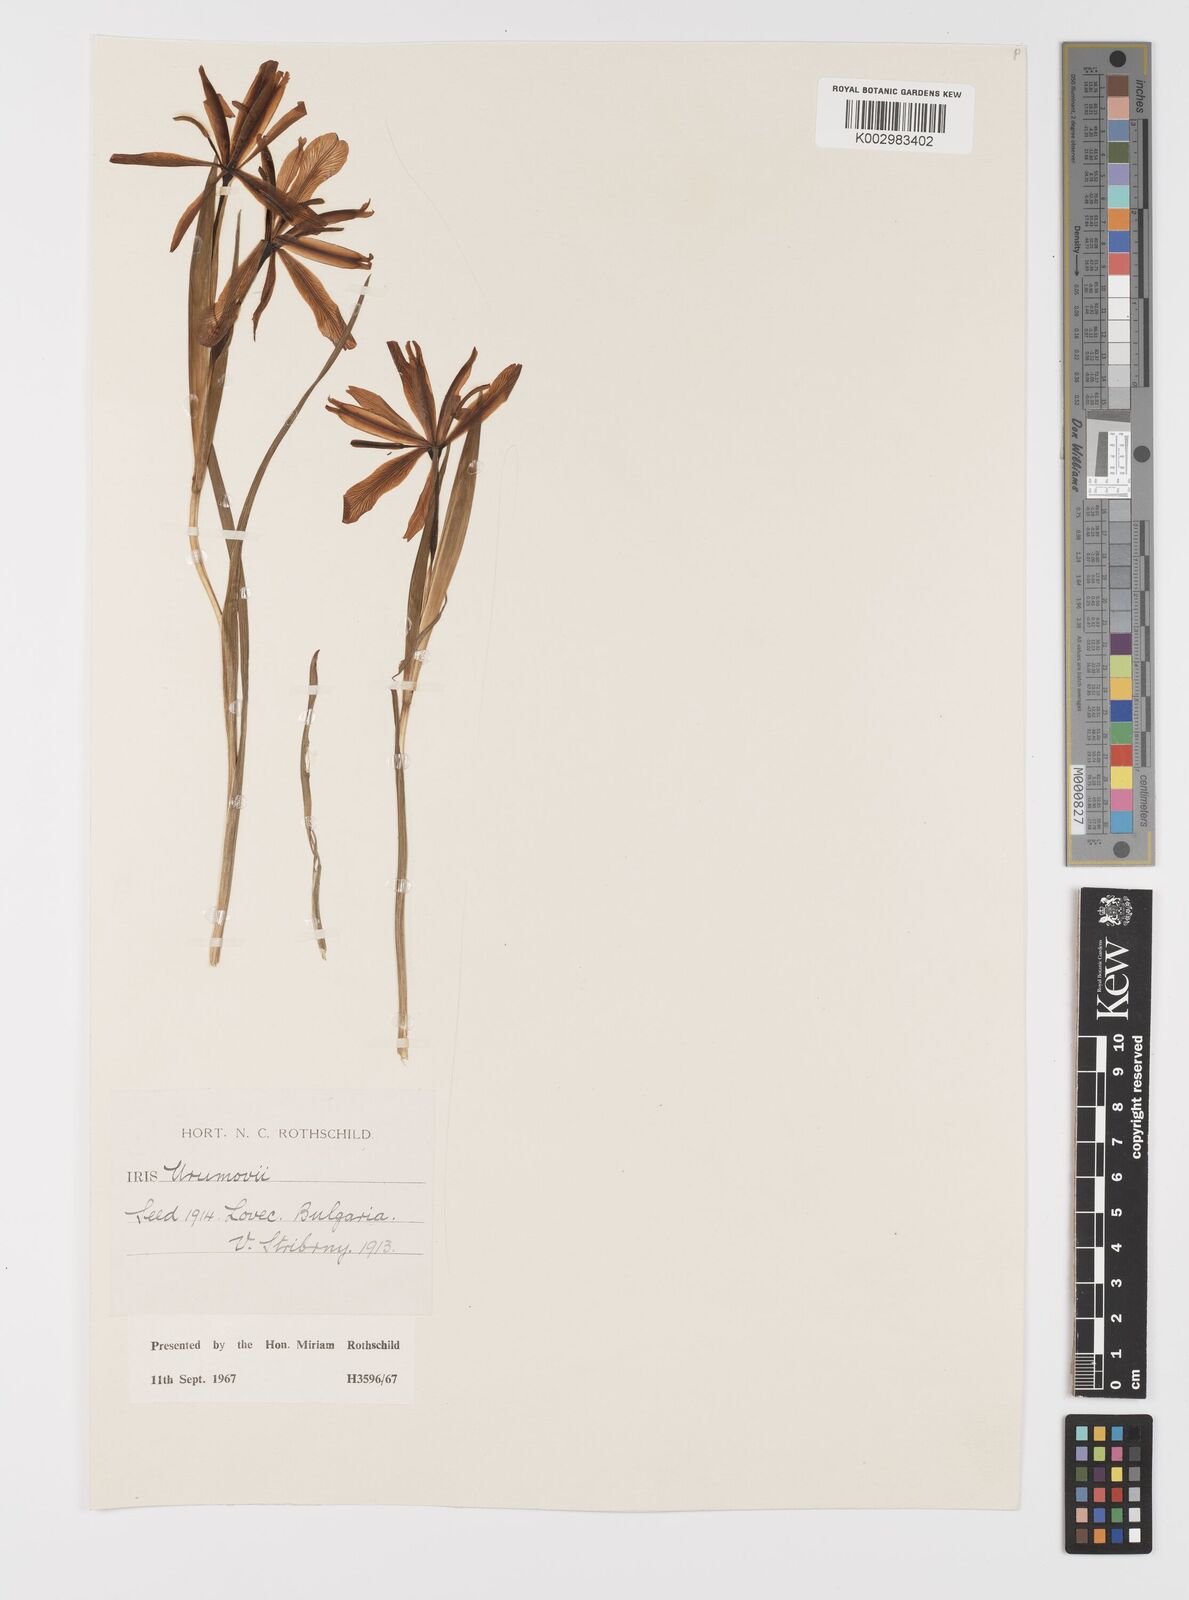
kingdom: Plantae
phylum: Tracheophyta
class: Liliopsida
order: Asparagales
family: Iridaceae
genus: Iris
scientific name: Iris sintenisii
